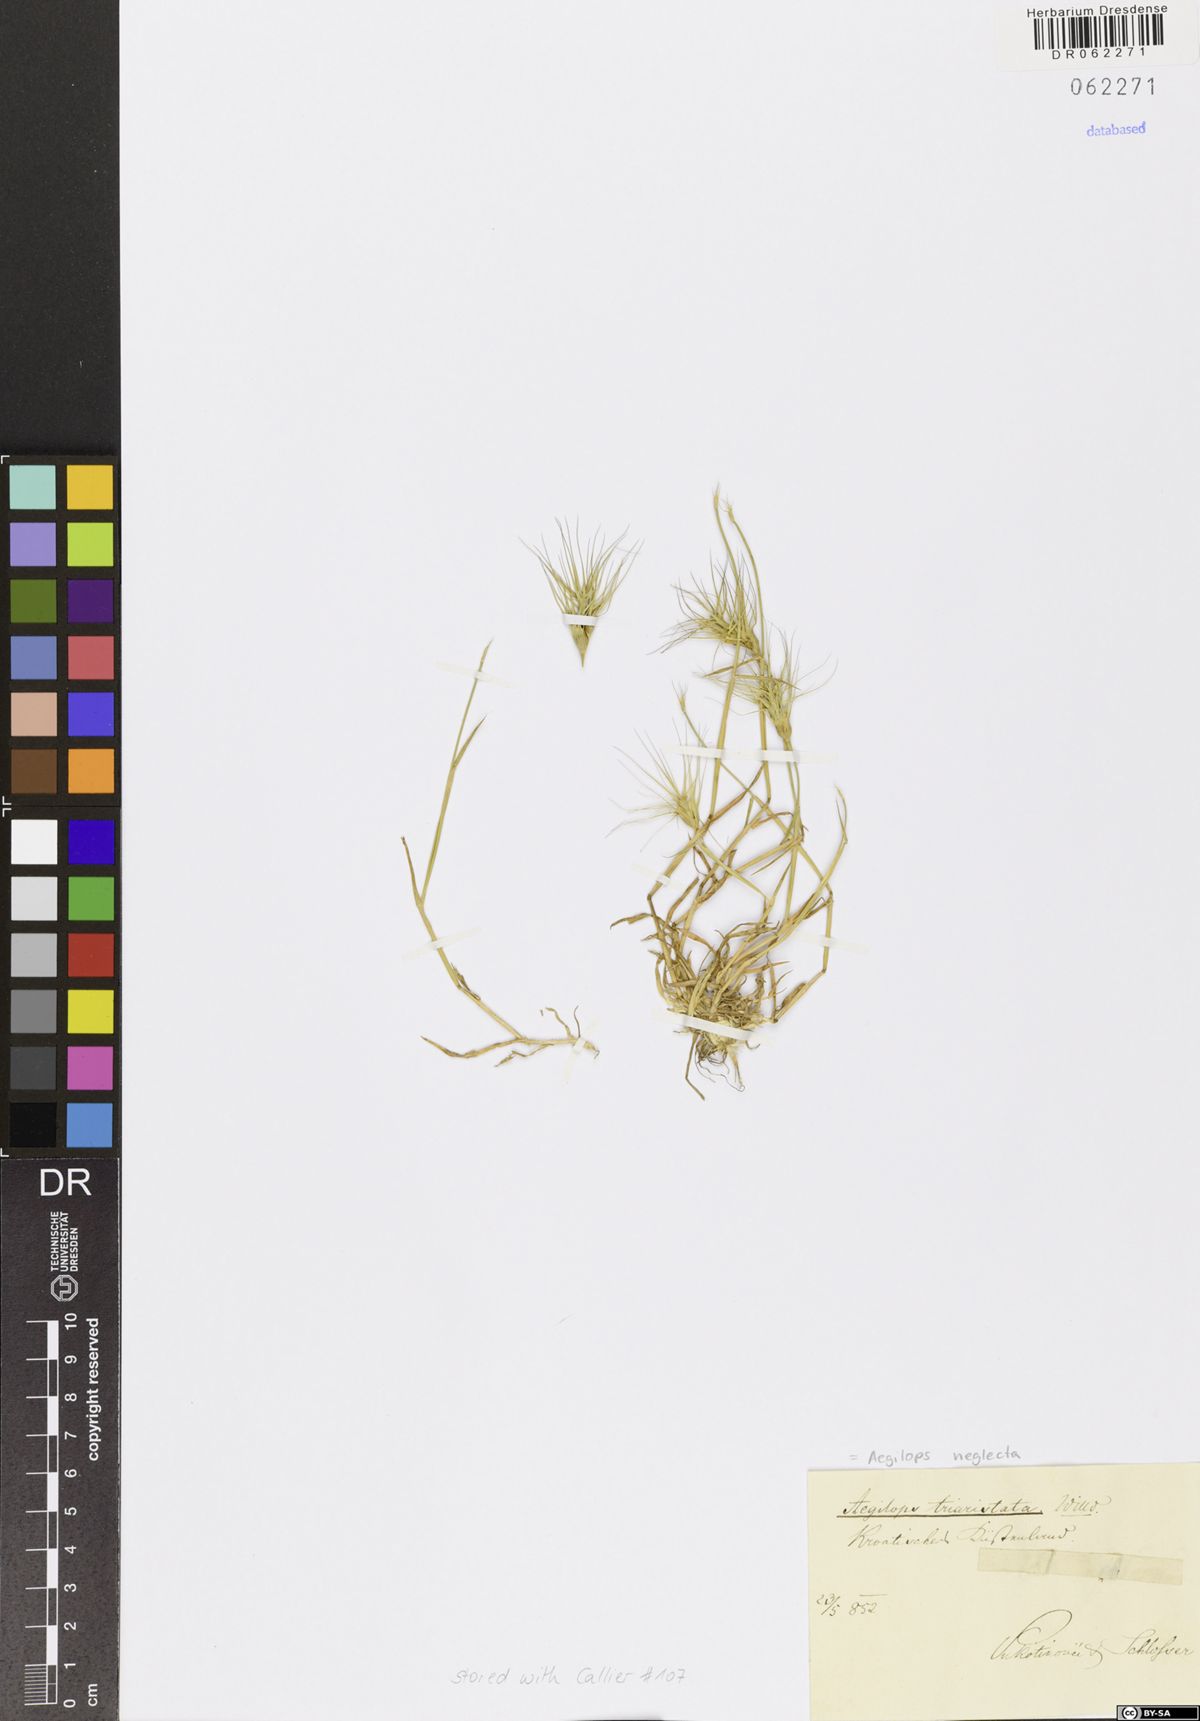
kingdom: Plantae
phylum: Tracheophyta
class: Liliopsida
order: Poales
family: Poaceae
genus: Aegilops
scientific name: Aegilops neglecta
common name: Three-awn goat grass
